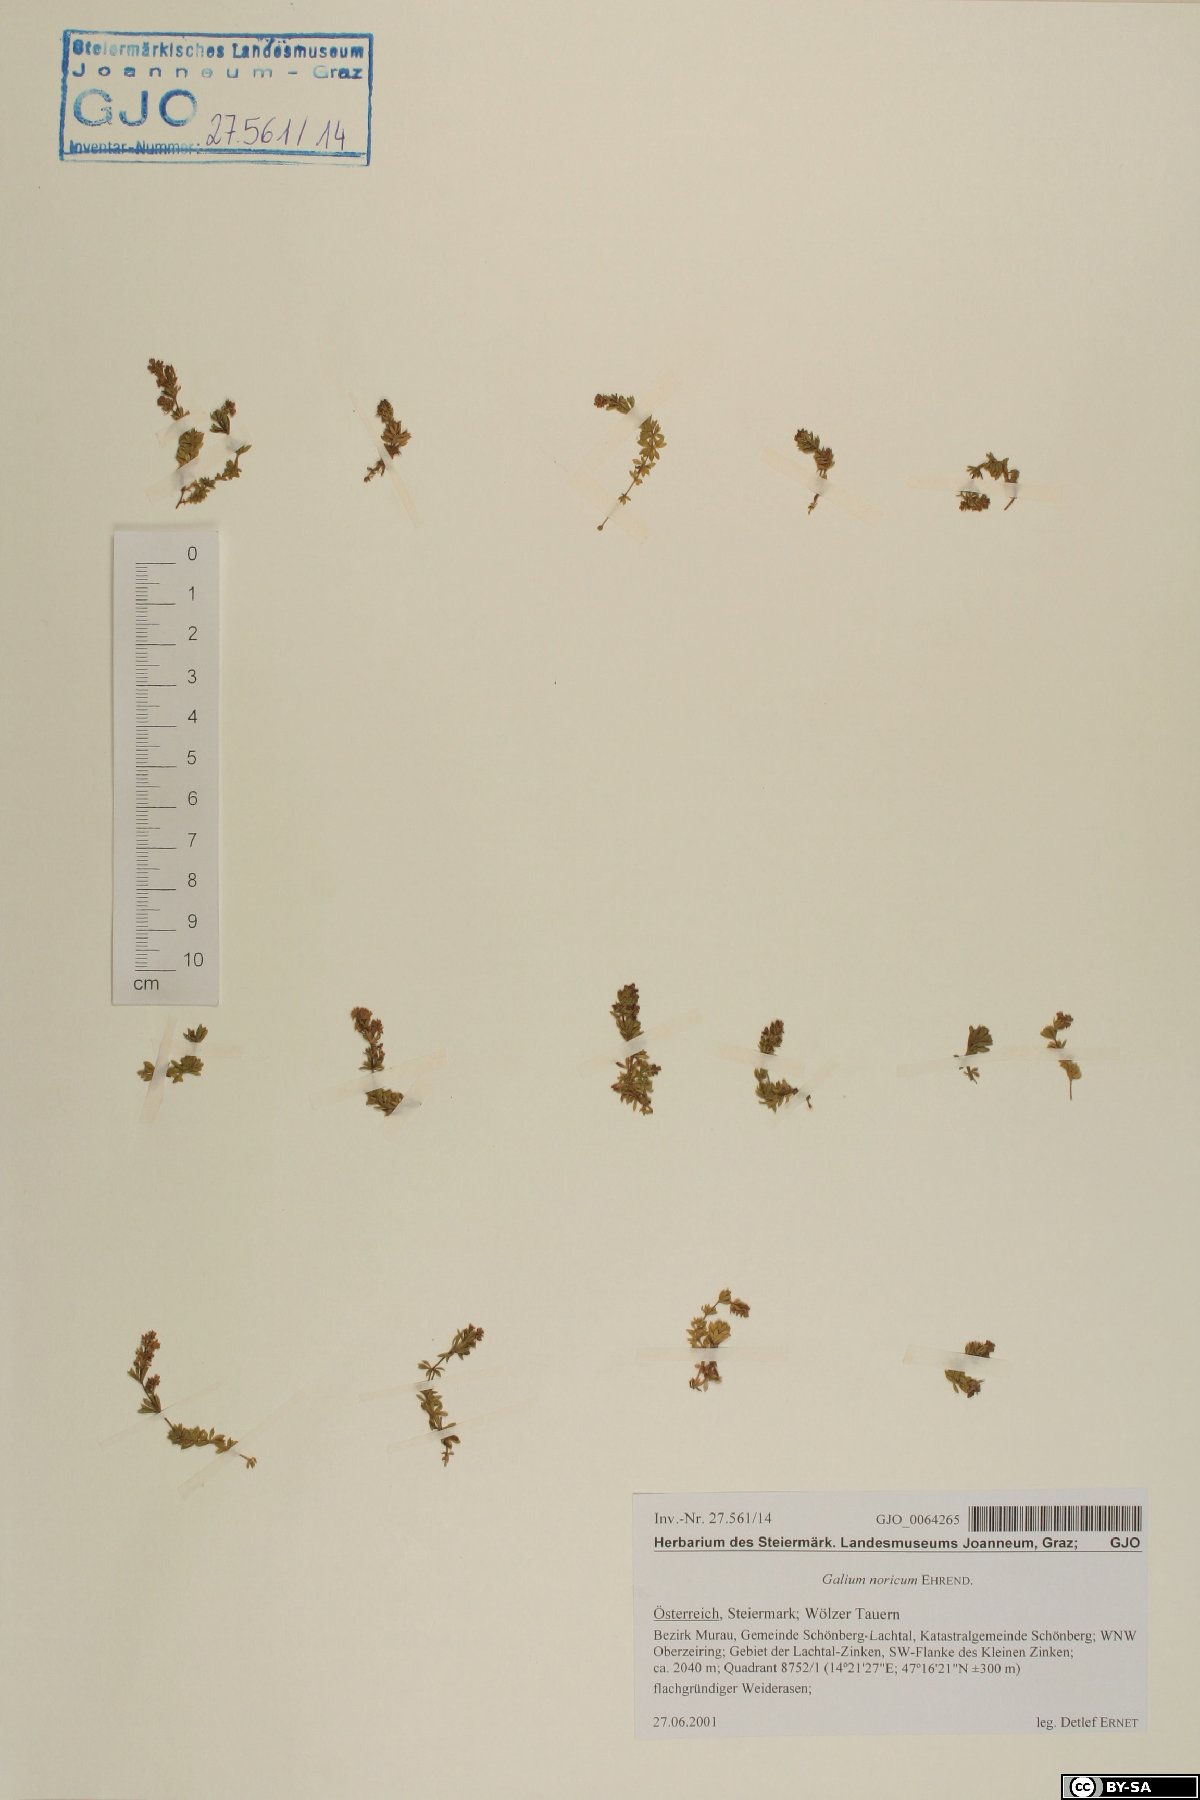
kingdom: Plantae
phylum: Tracheophyta
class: Magnoliopsida
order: Gentianales
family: Rubiaceae
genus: Galium
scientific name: Galium noricum
